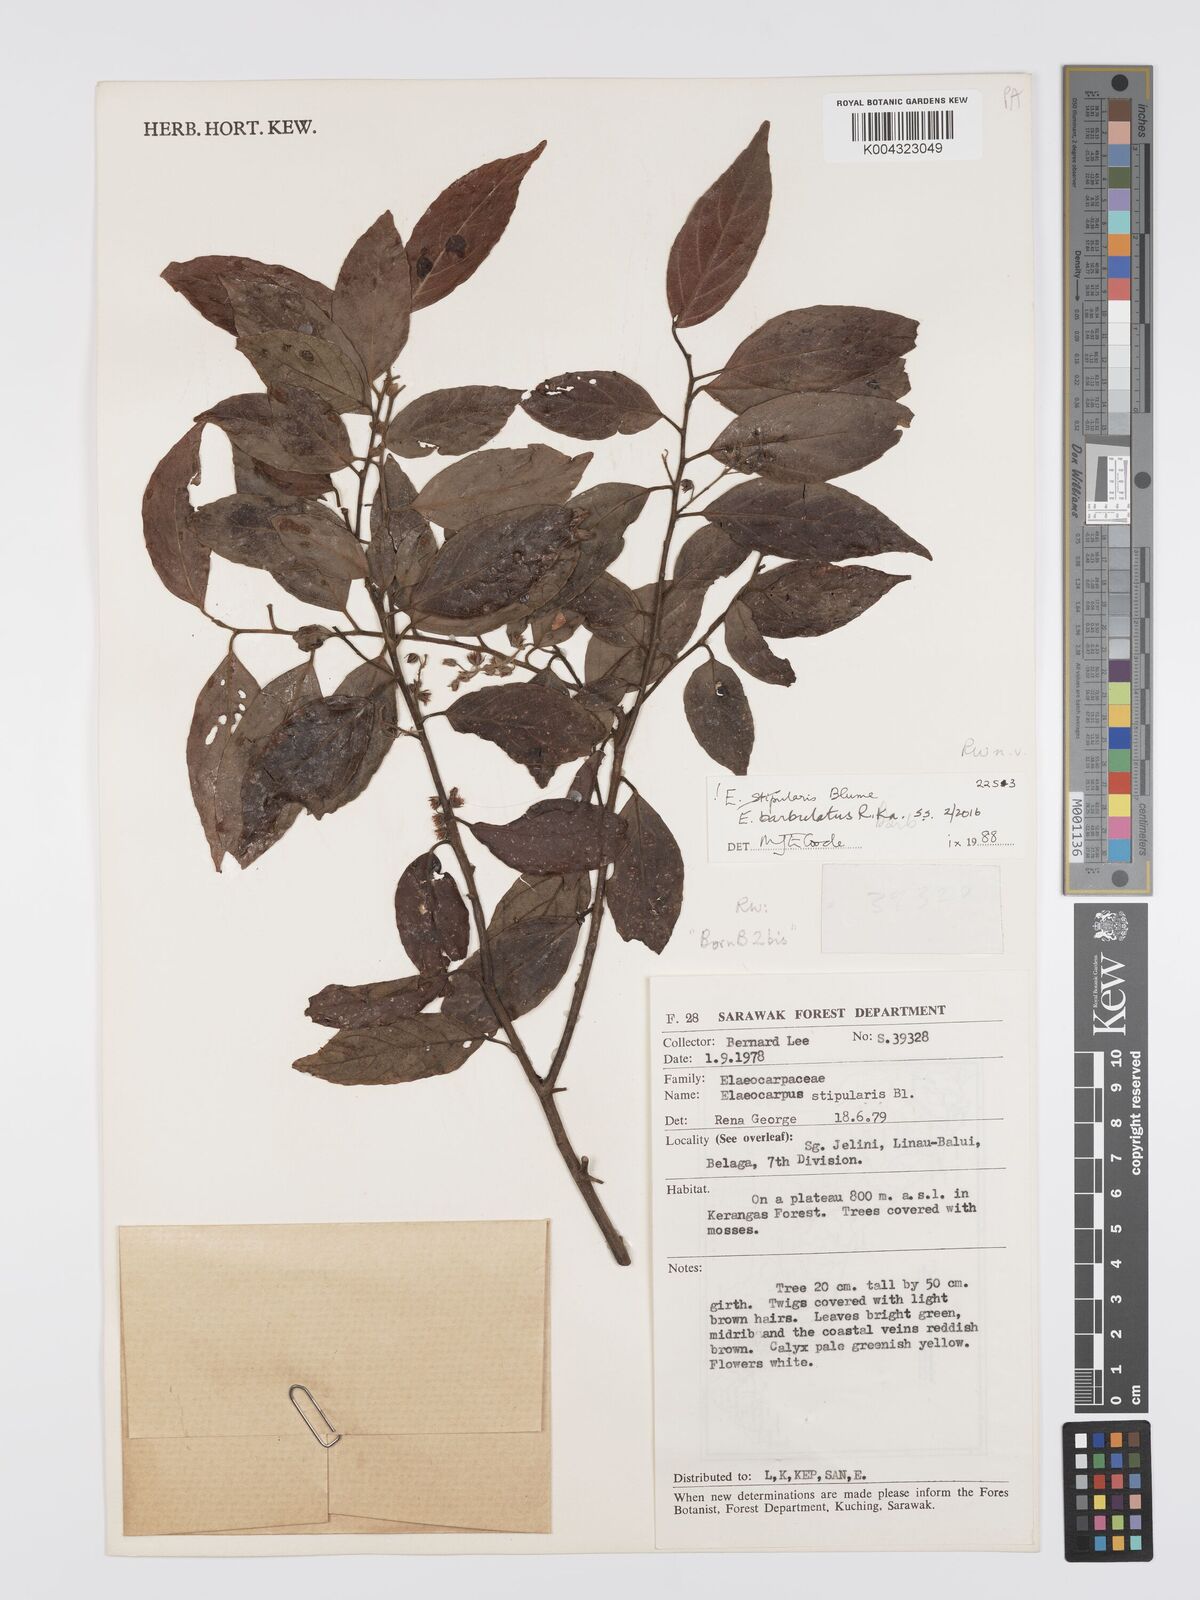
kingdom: Plantae
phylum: Tracheophyta
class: Magnoliopsida
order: Oxalidales
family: Elaeocarpaceae
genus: Elaeocarpus
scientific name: Elaeocarpus barbulatus
